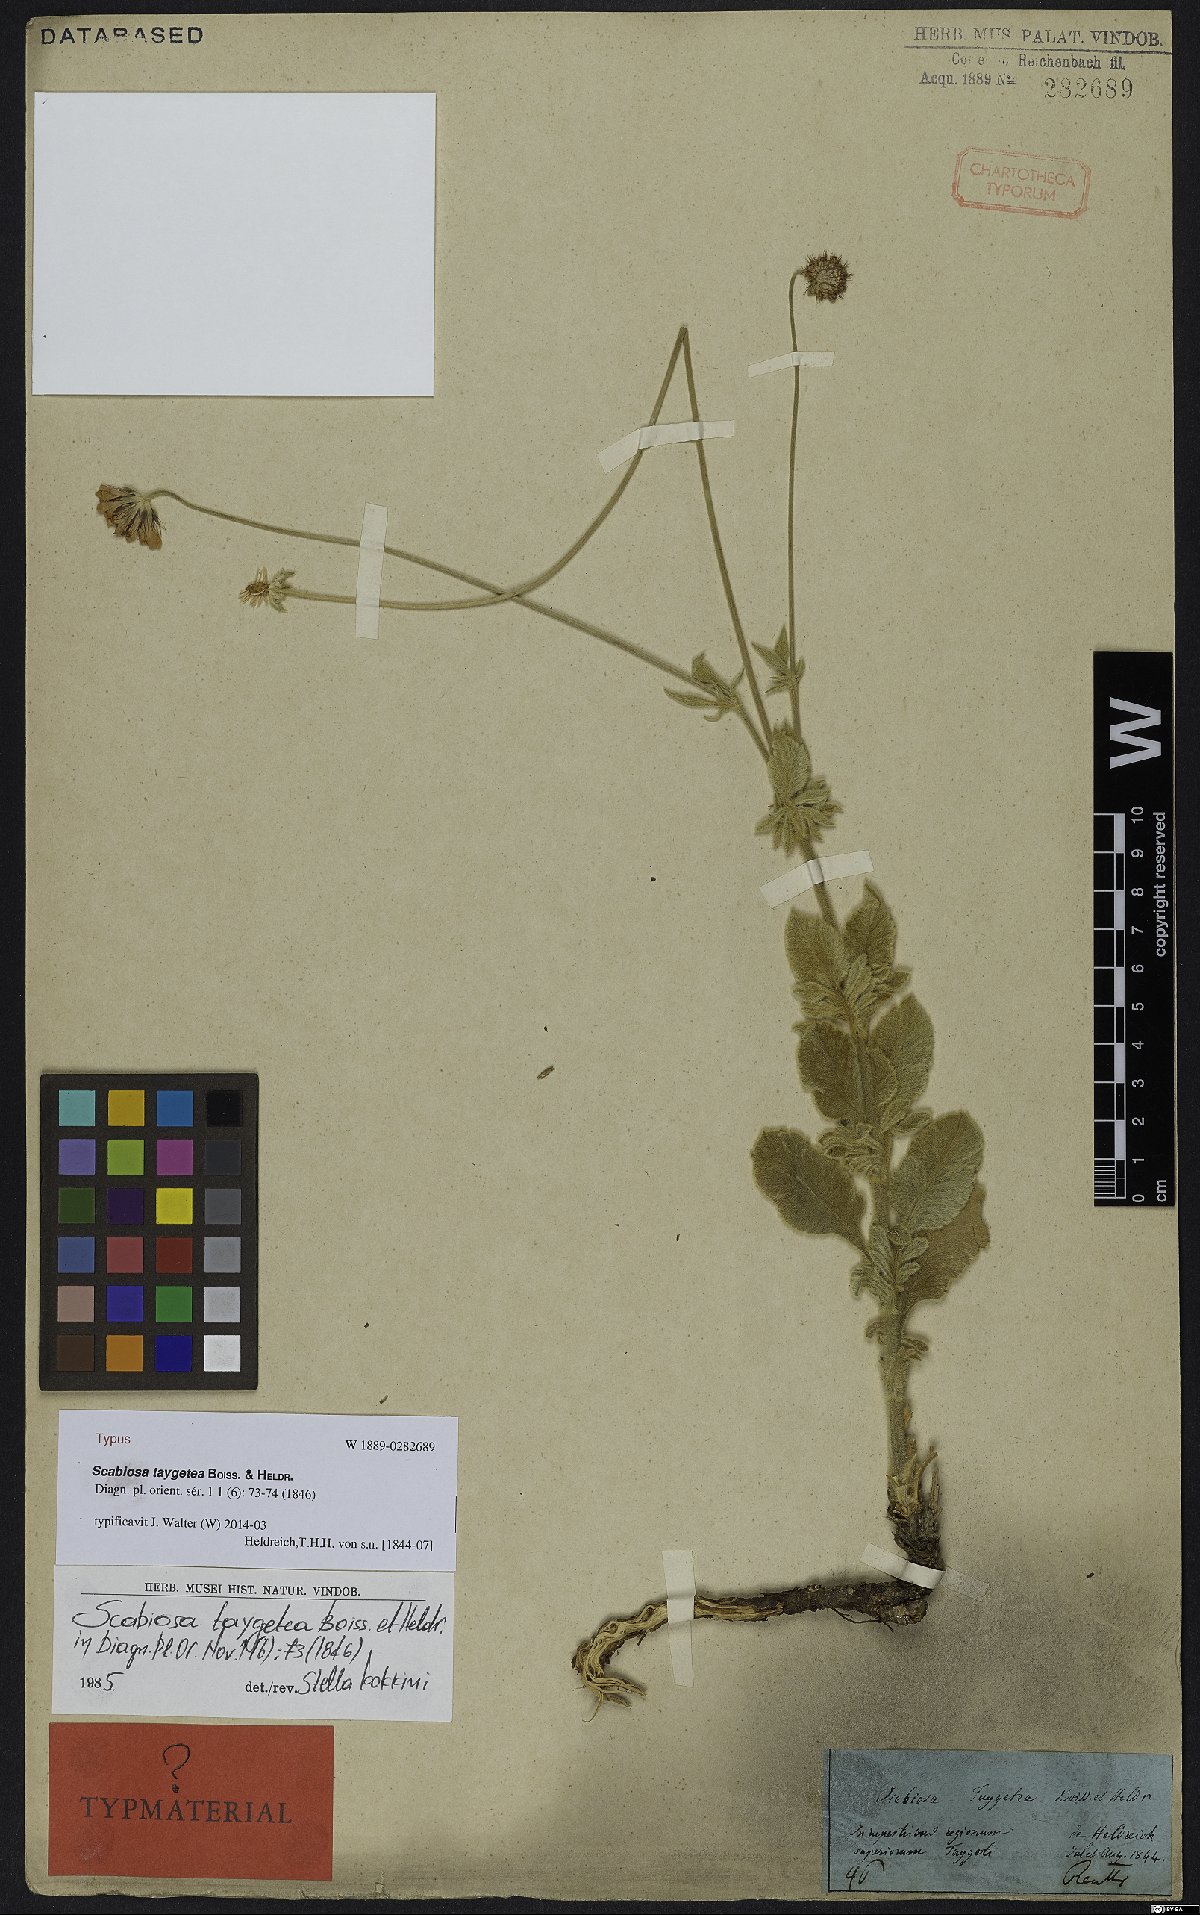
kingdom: Plantae
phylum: Tracheophyta
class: Magnoliopsida
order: Dipsacales
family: Caprifoliaceae
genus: Scabiosa
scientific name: Scabiosa taygetea
